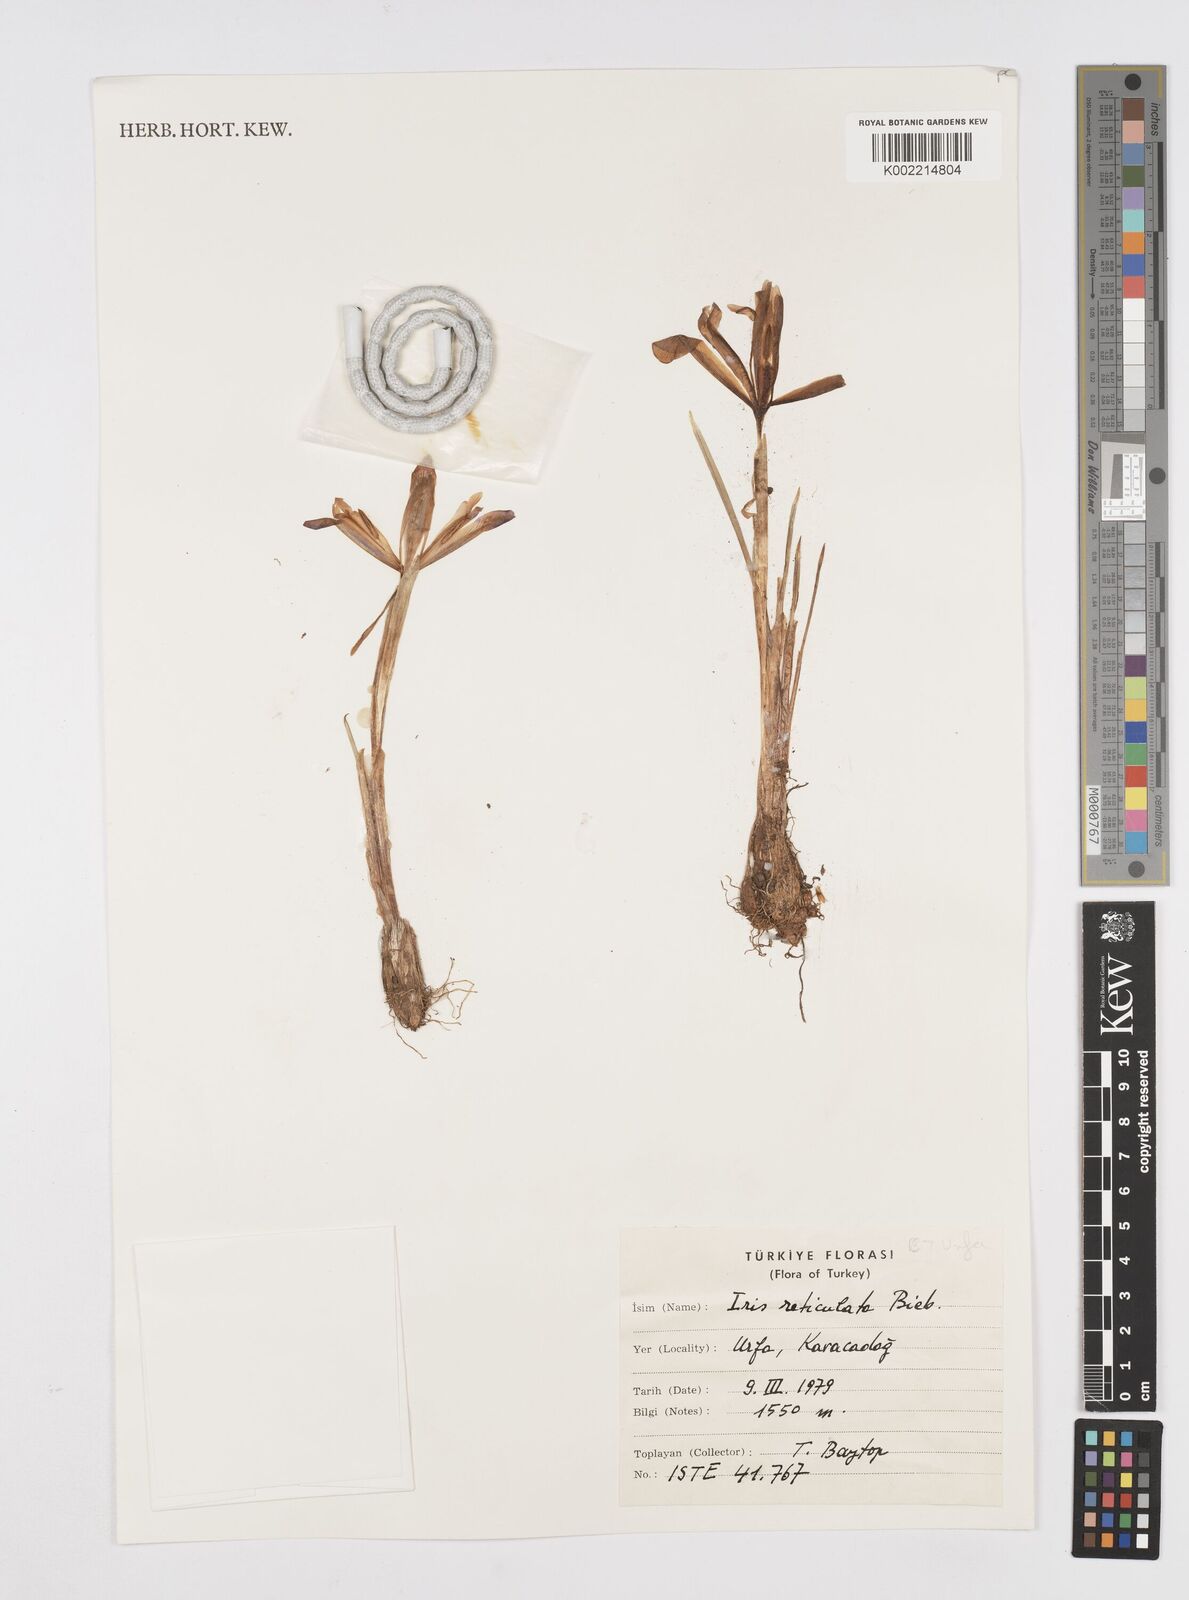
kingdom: Plantae
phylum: Tracheophyta
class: Liliopsida
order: Asparagales
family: Iridaceae
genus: Iris
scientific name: Iris reticulata
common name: Netted iris
